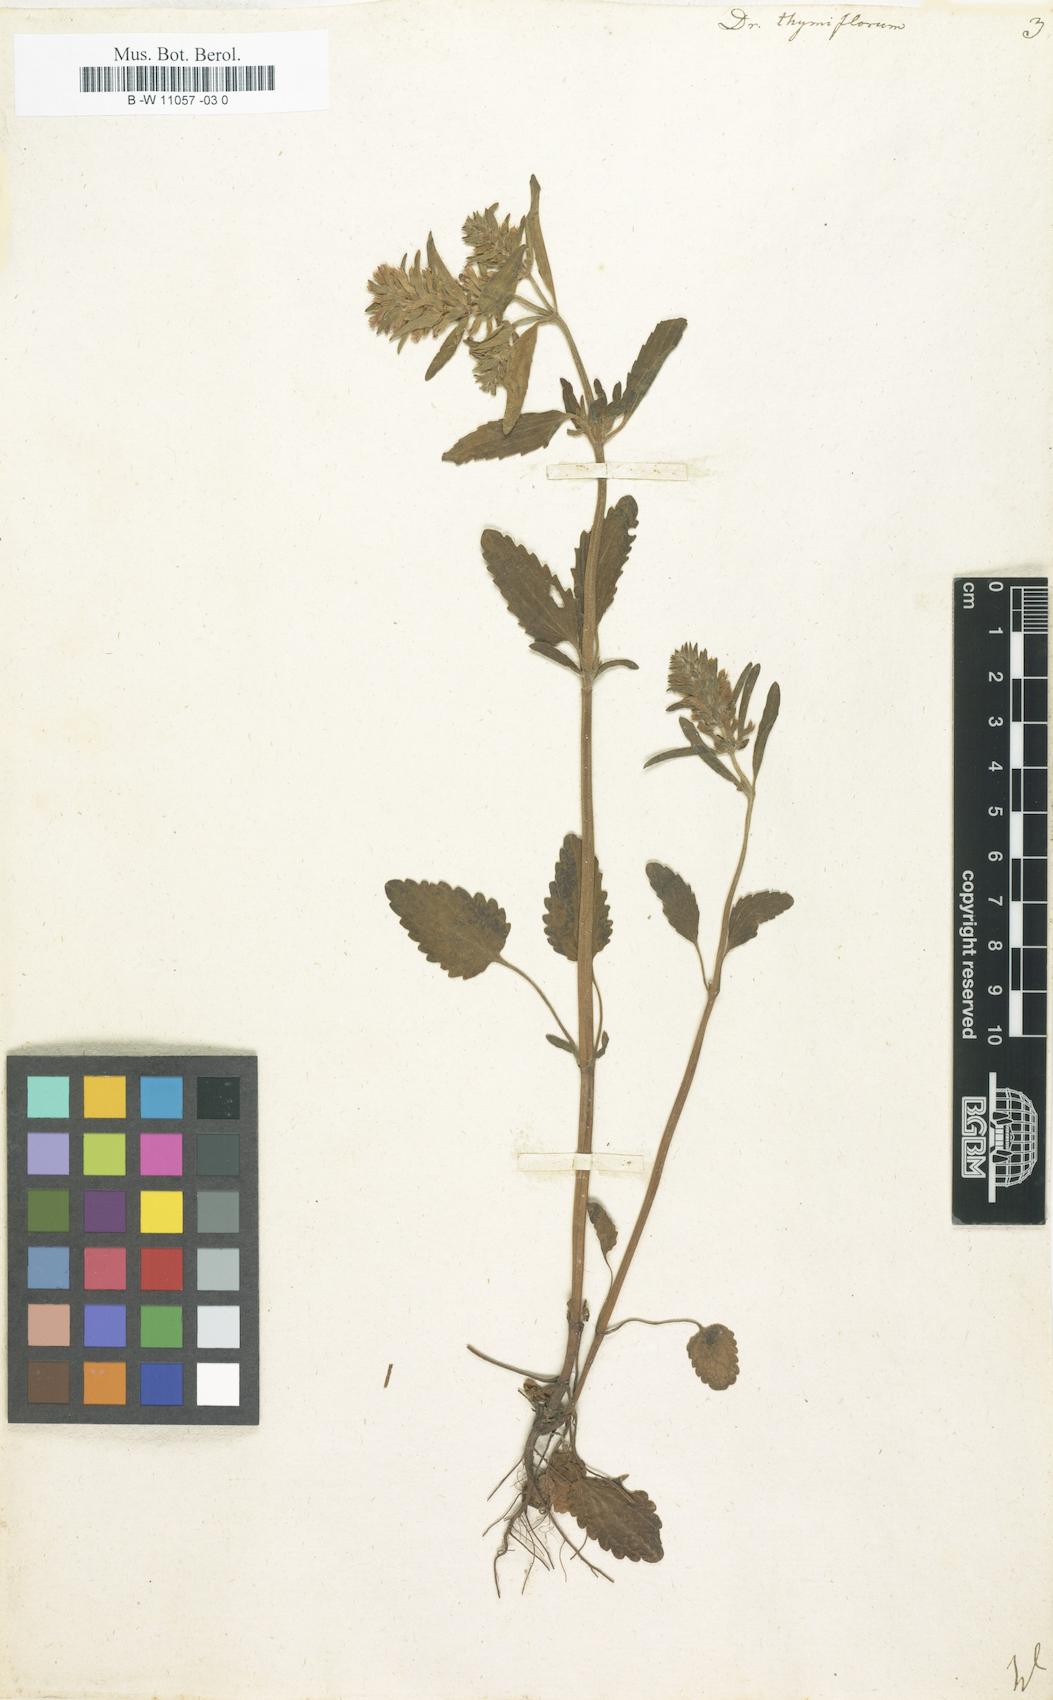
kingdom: Plantae
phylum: Tracheophyta
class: Magnoliopsida
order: Lamiales
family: Lamiaceae
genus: Dracocephalum
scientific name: Dracocephalum thymiflorum
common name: Thymeleaf dragonhead
